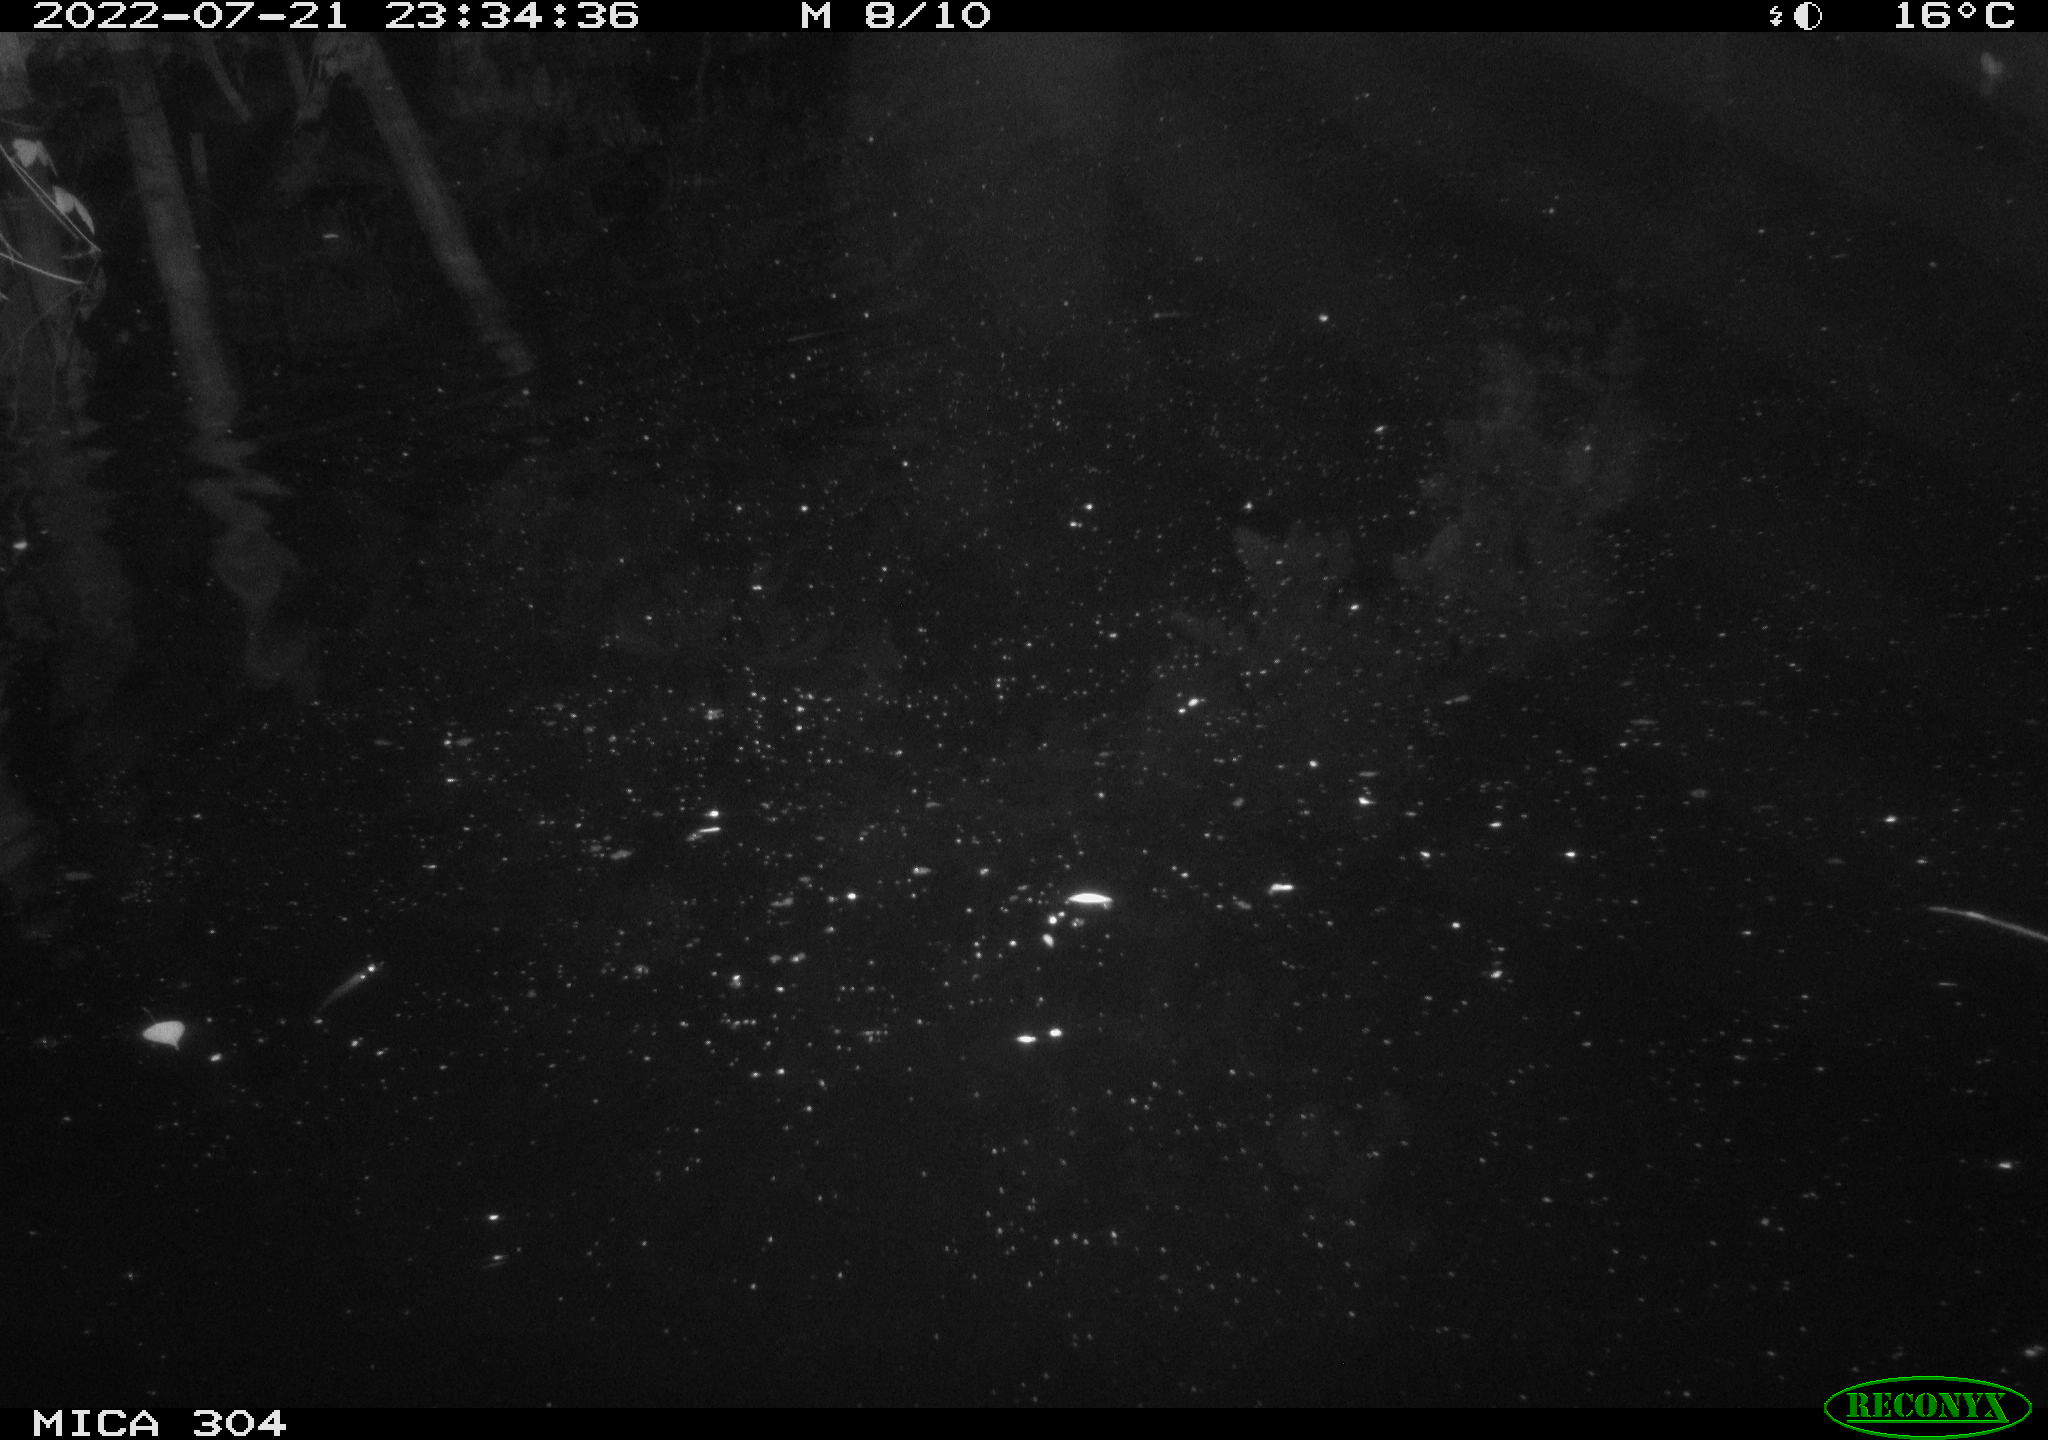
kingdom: Animalia
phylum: Chordata
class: Mammalia
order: Rodentia
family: Muridae
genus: Rattus
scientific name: Rattus norvegicus
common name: Brown rat
